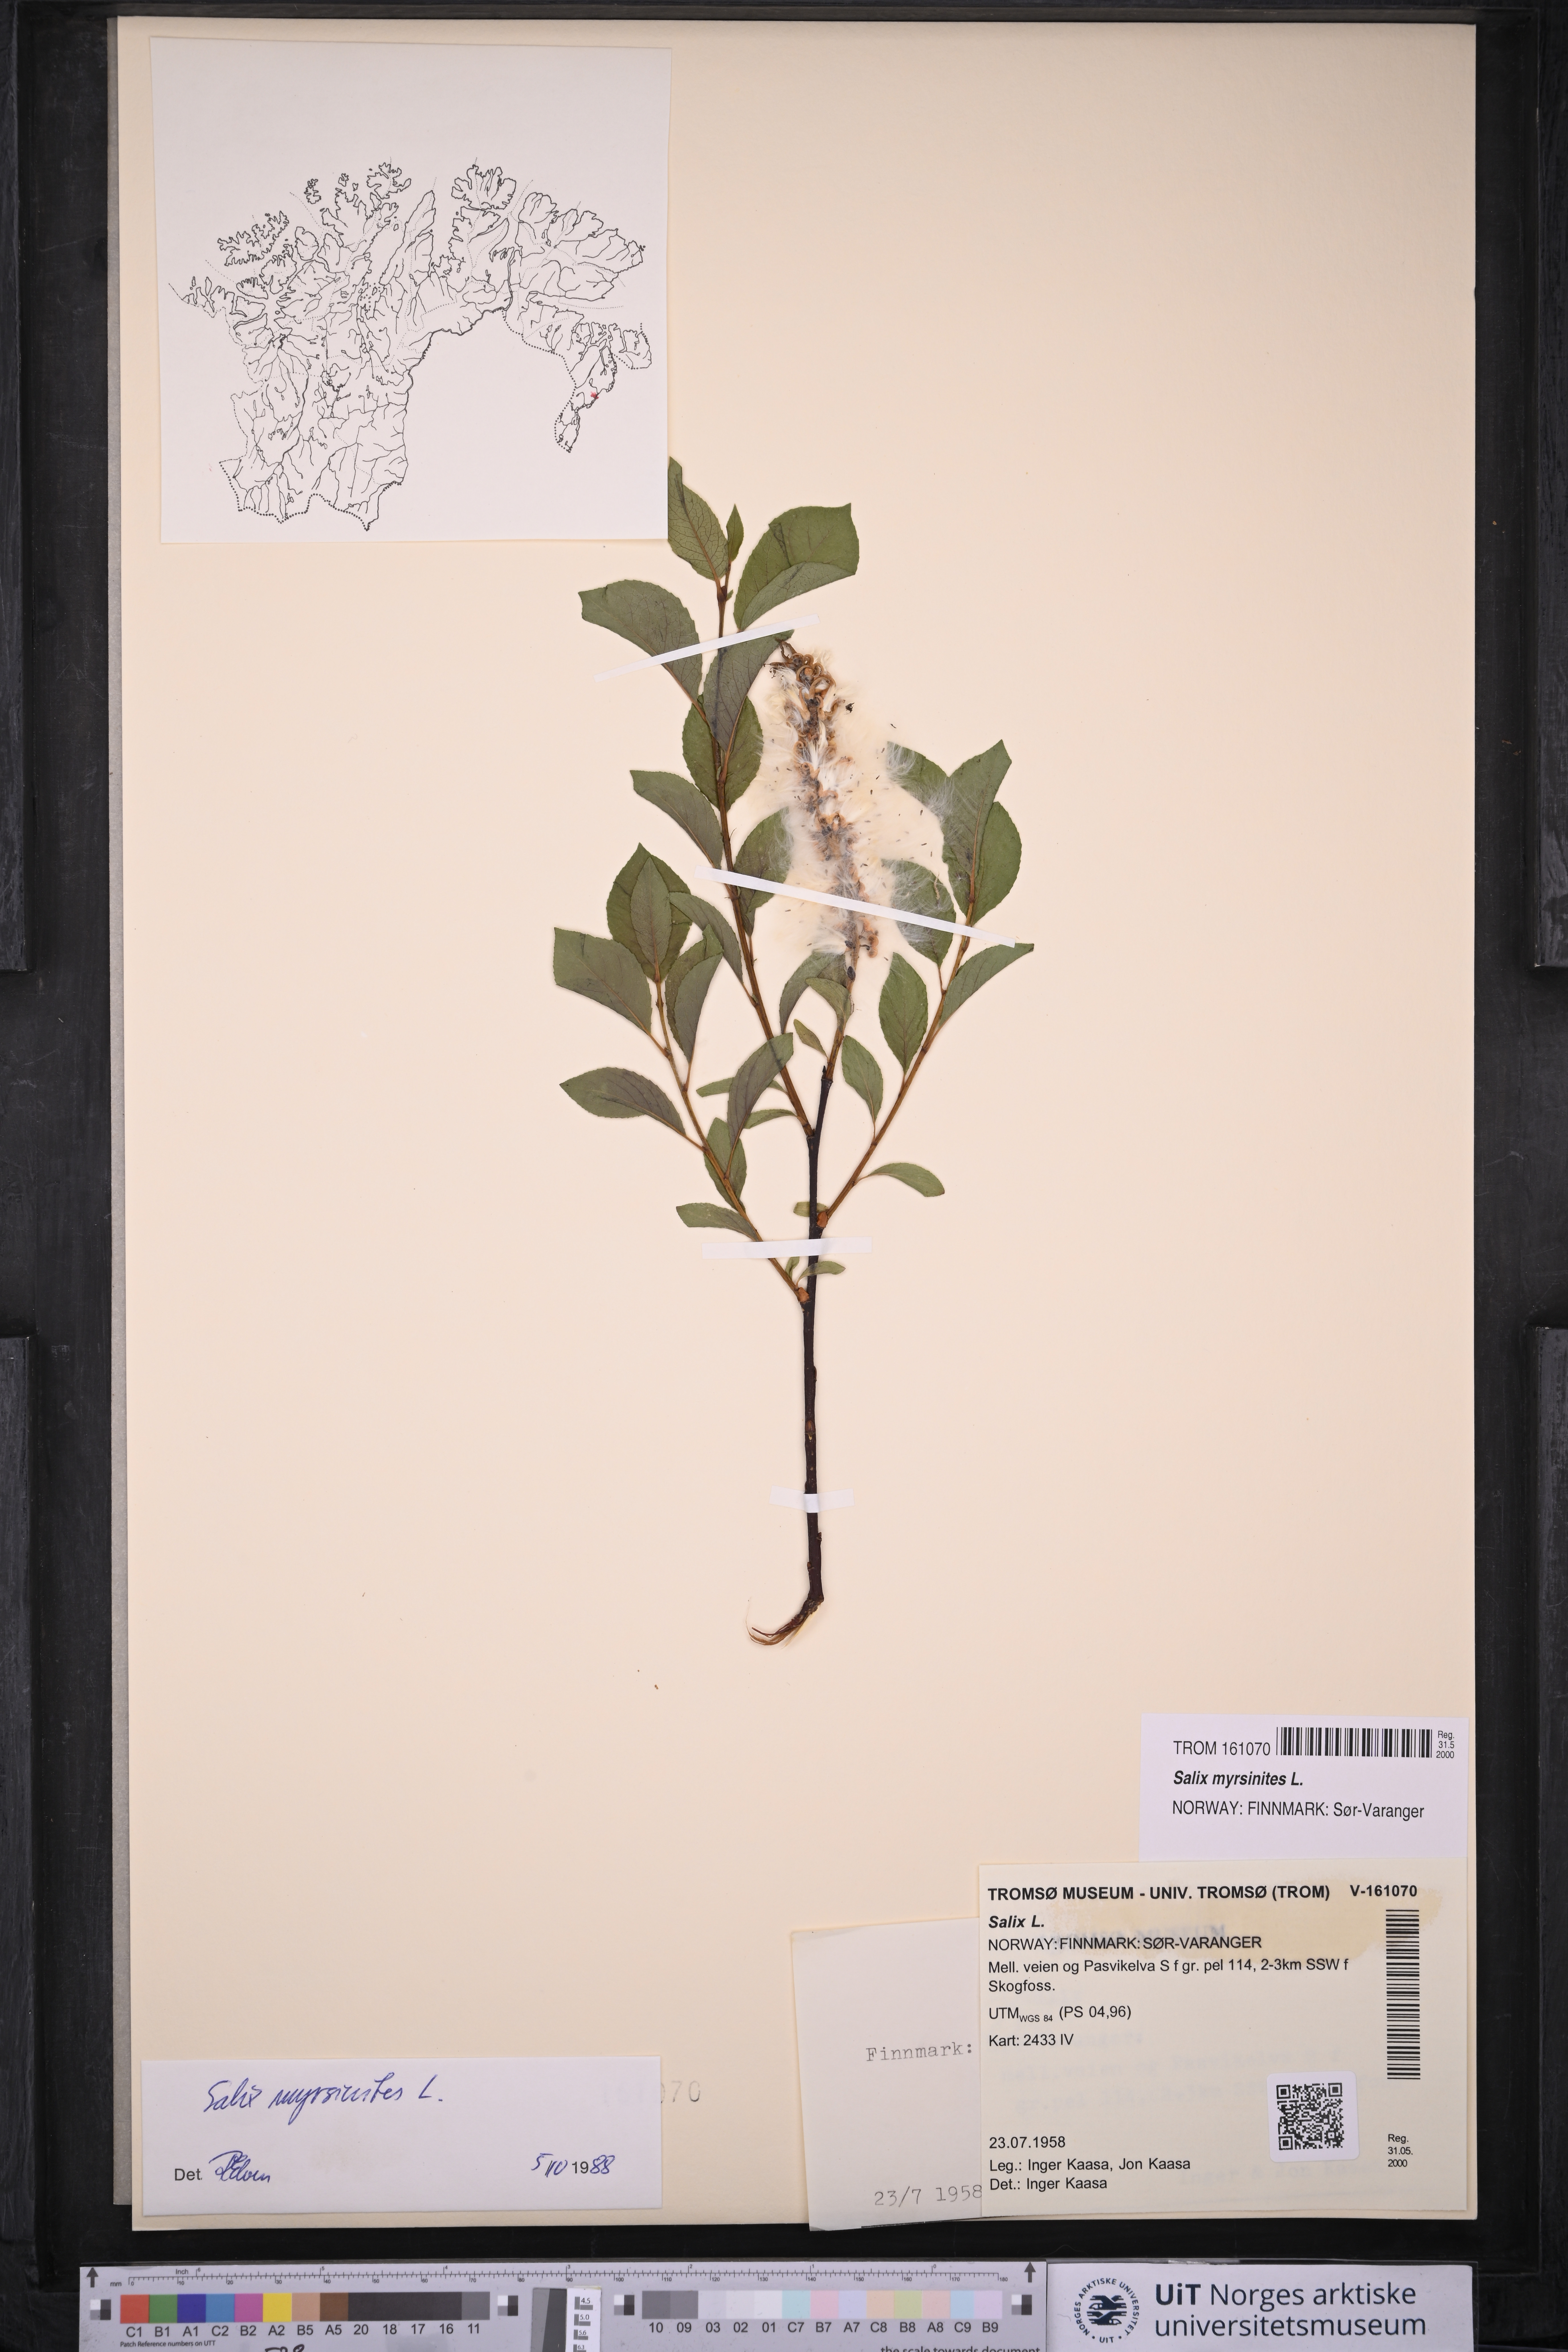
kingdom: Plantae
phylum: Tracheophyta
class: Magnoliopsida
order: Malpighiales
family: Salicaceae
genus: Salix
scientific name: Salix myrsinites
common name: Myrtle willow
